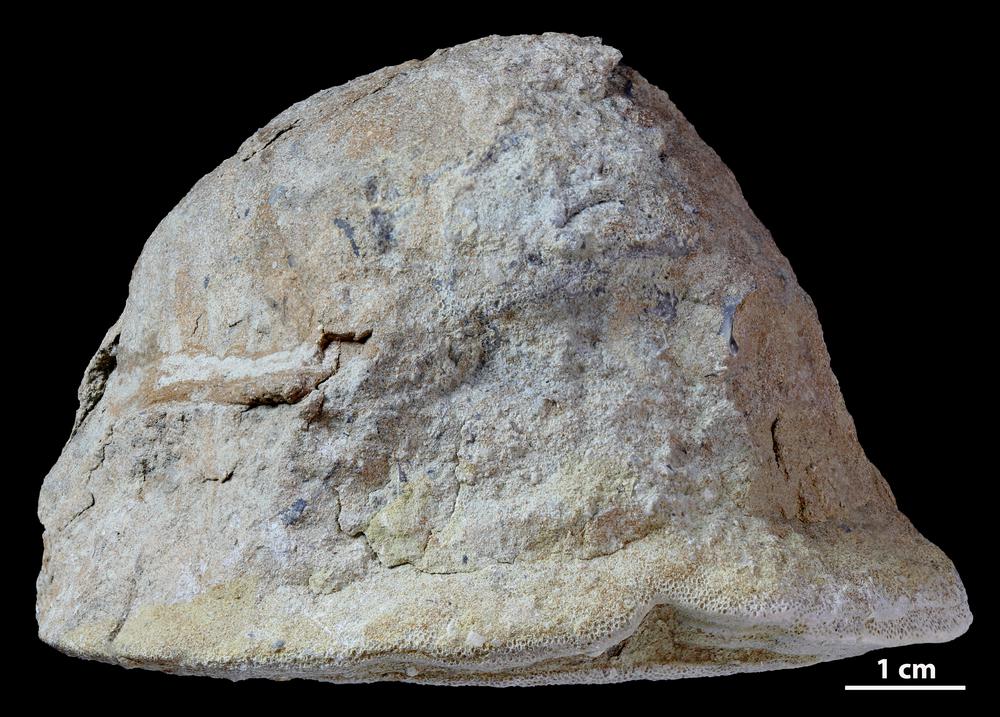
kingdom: Animalia
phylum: Bryozoa
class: Stenolaemata
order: Trepostomatida
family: Diplotrypidae
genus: Diplotrypa
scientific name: Diplotrypa petropolitana
